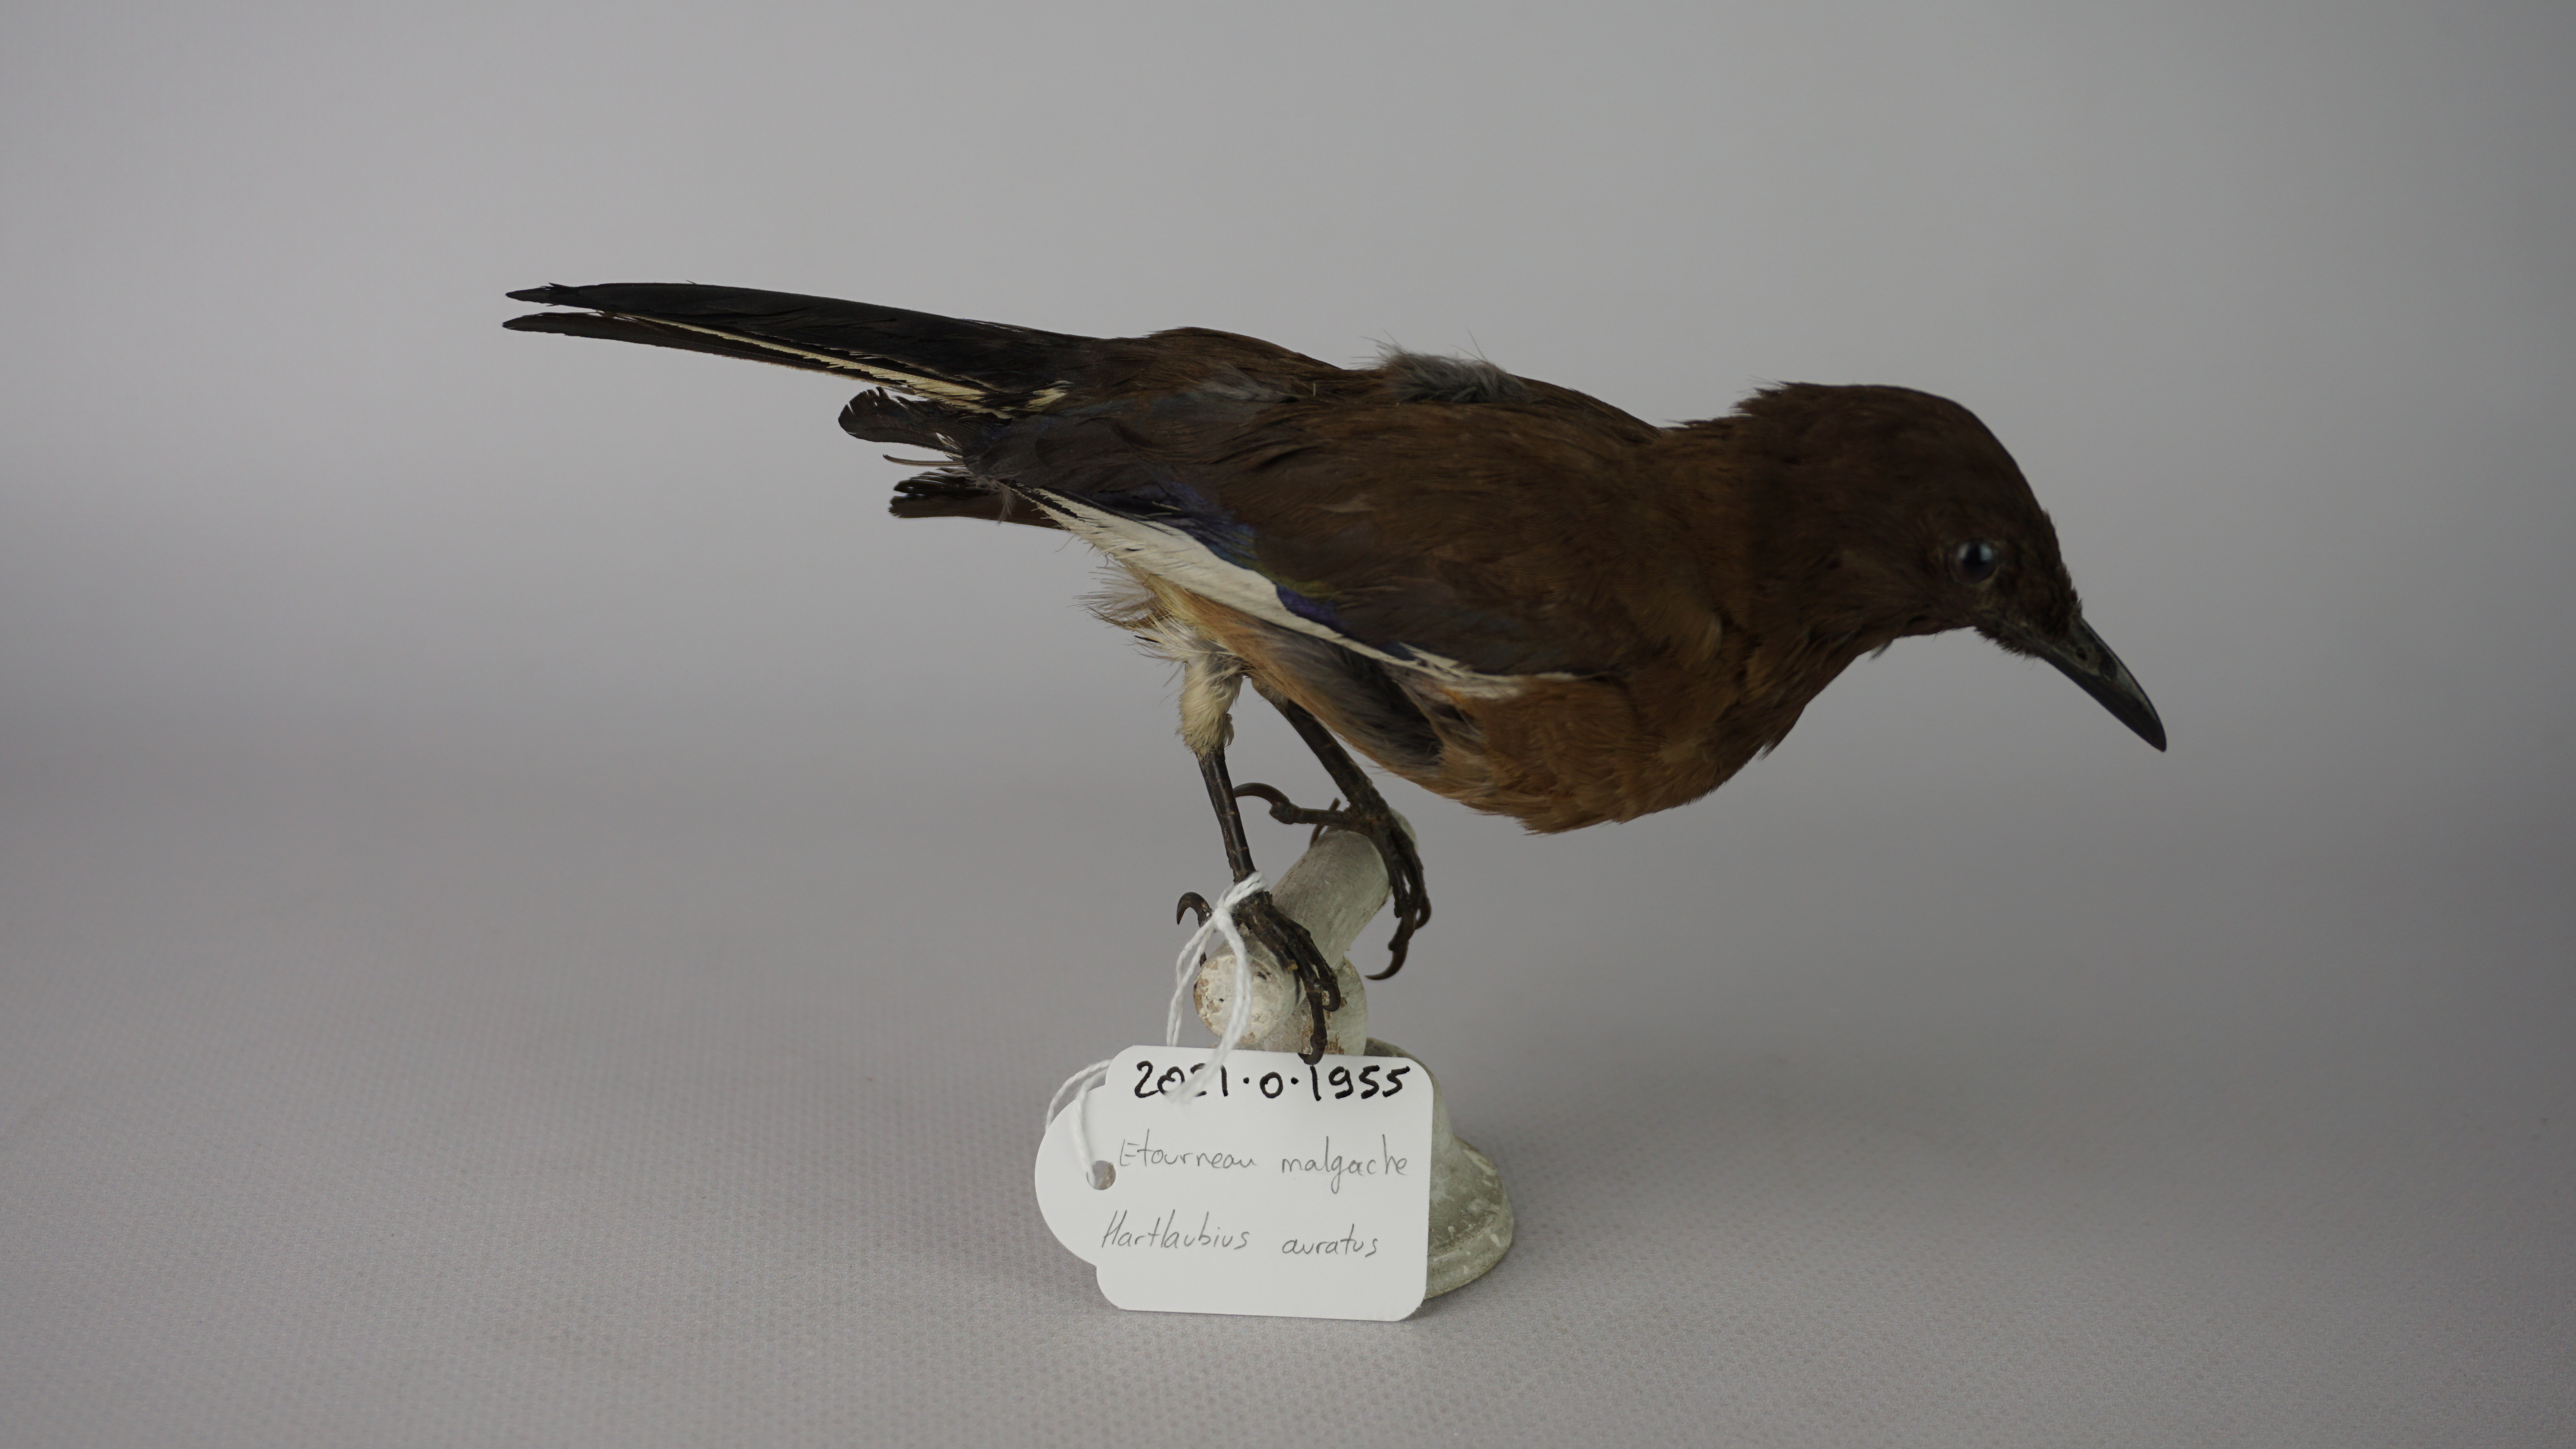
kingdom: Animalia
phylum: Chordata
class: Aves
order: Passeriformes
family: Sturnidae
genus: Hartlaubius
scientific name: Hartlaubius auratus
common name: Madagascar starling
